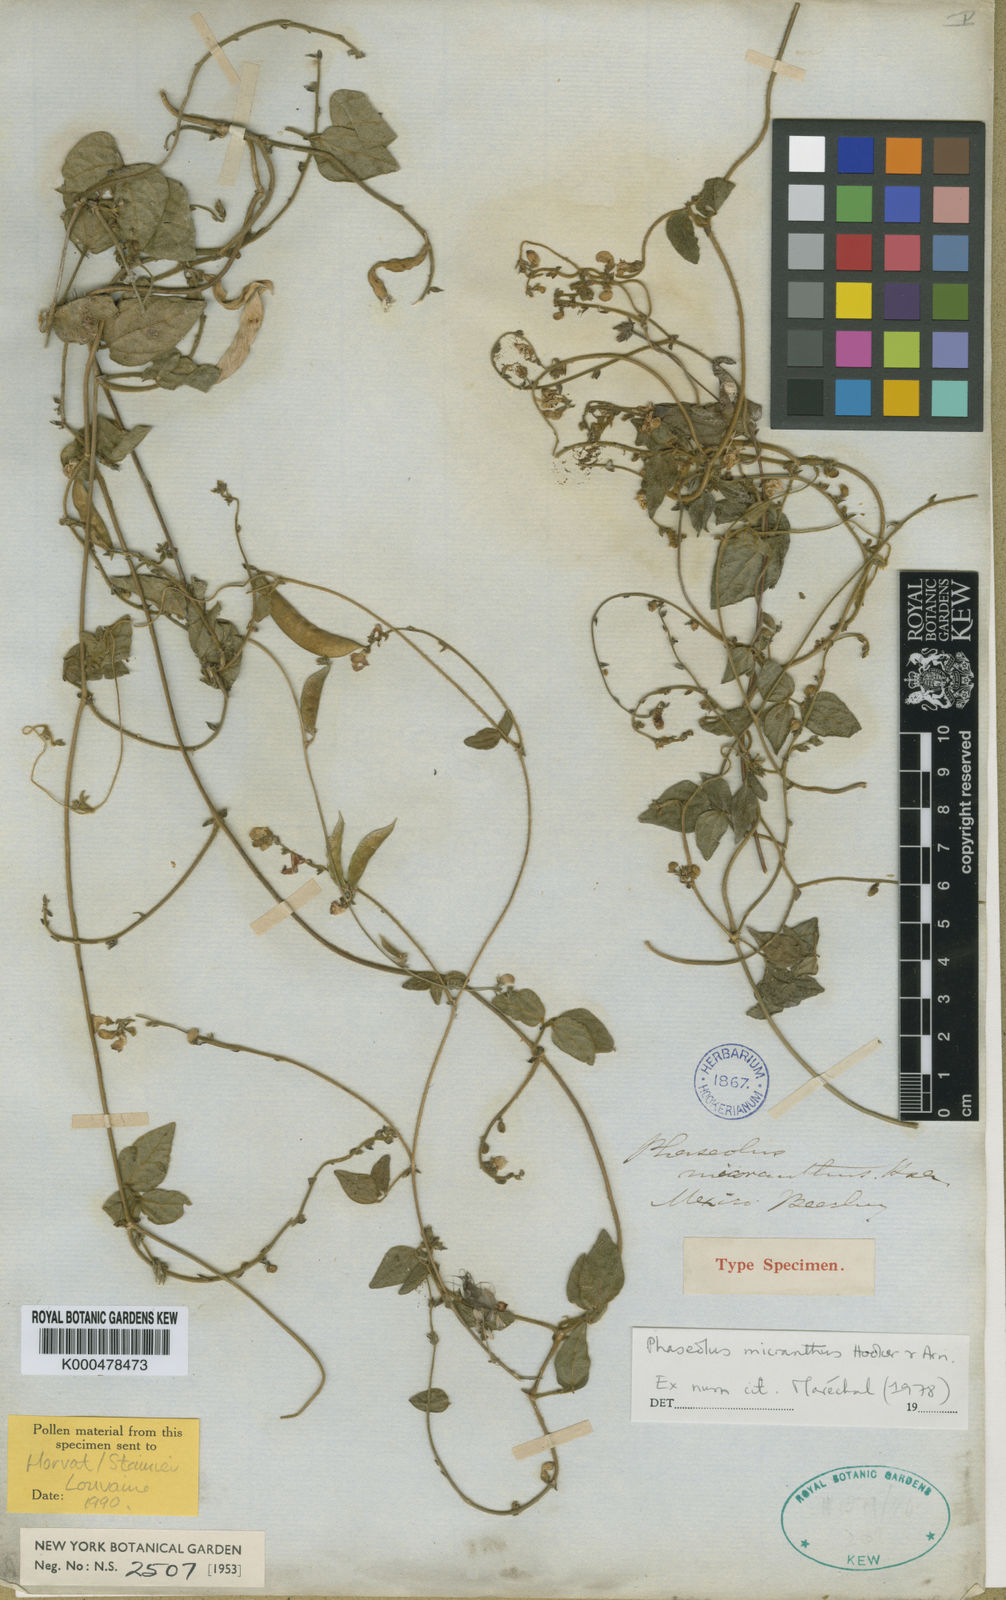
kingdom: Plantae
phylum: Tracheophyta
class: Magnoliopsida
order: Fabales
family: Fabaceae
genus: Phaseolus
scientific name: Phaseolus micranthus
